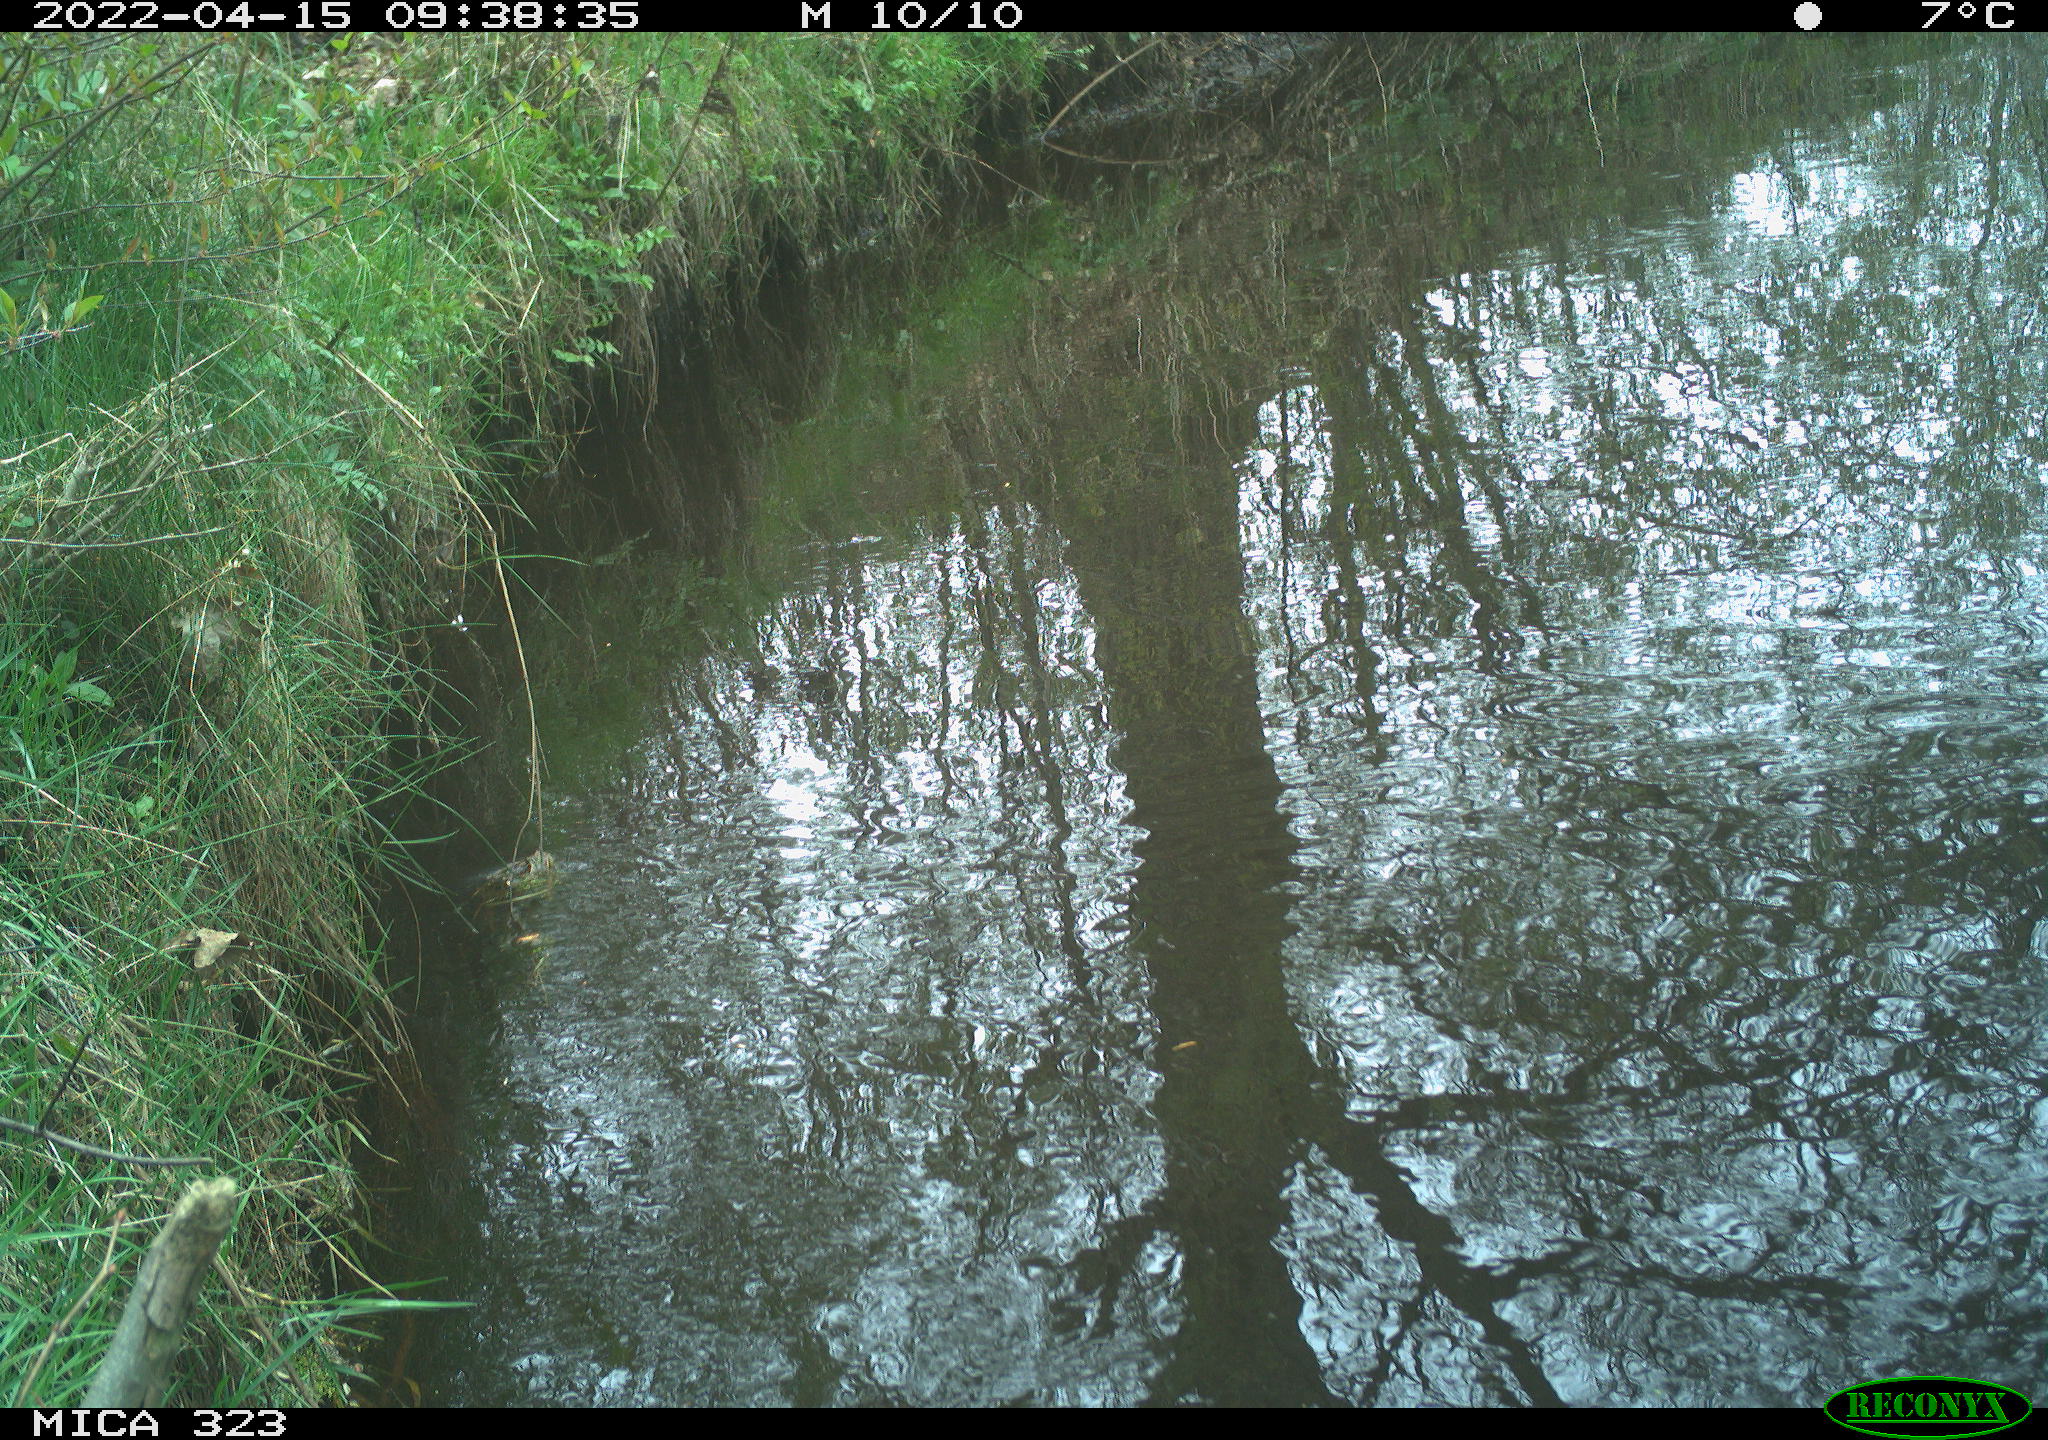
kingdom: Animalia
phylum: Chordata
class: Aves
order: Gruiformes
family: Rallidae
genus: Gallinula
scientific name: Gallinula chloropus
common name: Common moorhen
